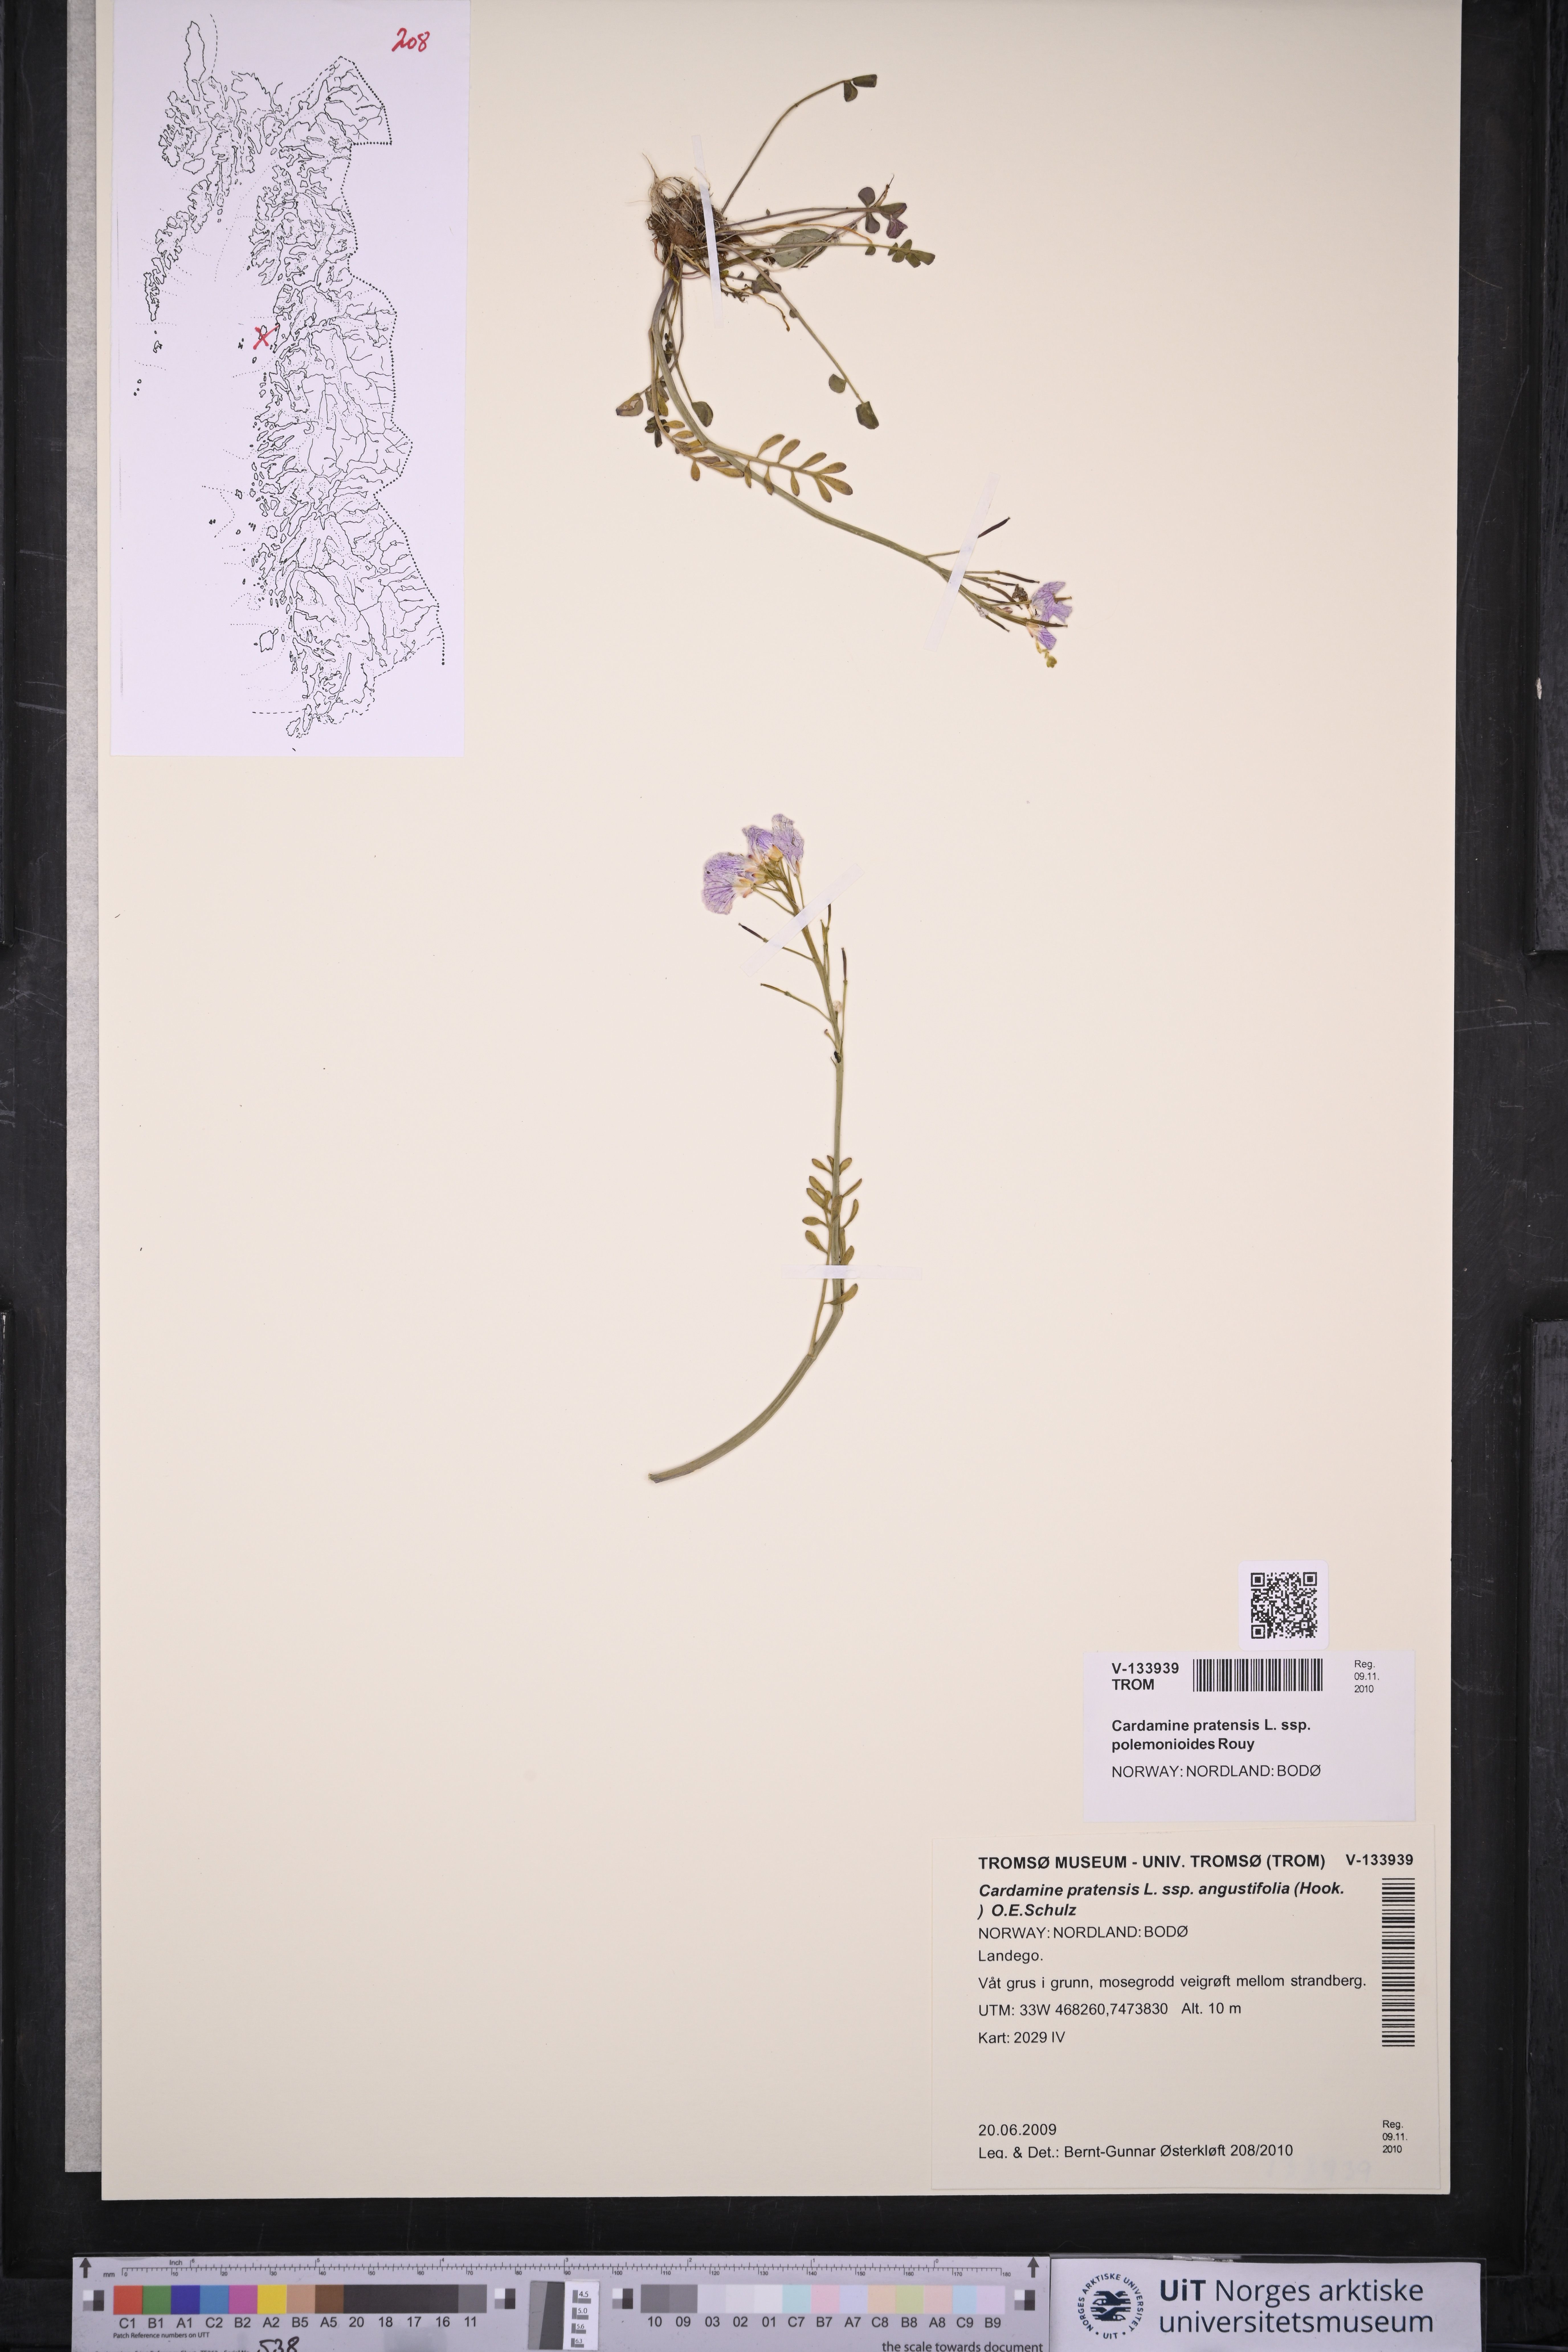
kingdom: Plantae
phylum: Tracheophyta
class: Magnoliopsida
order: Brassicales
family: Brassicaceae
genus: Cardamine
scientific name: Cardamine nymanii
